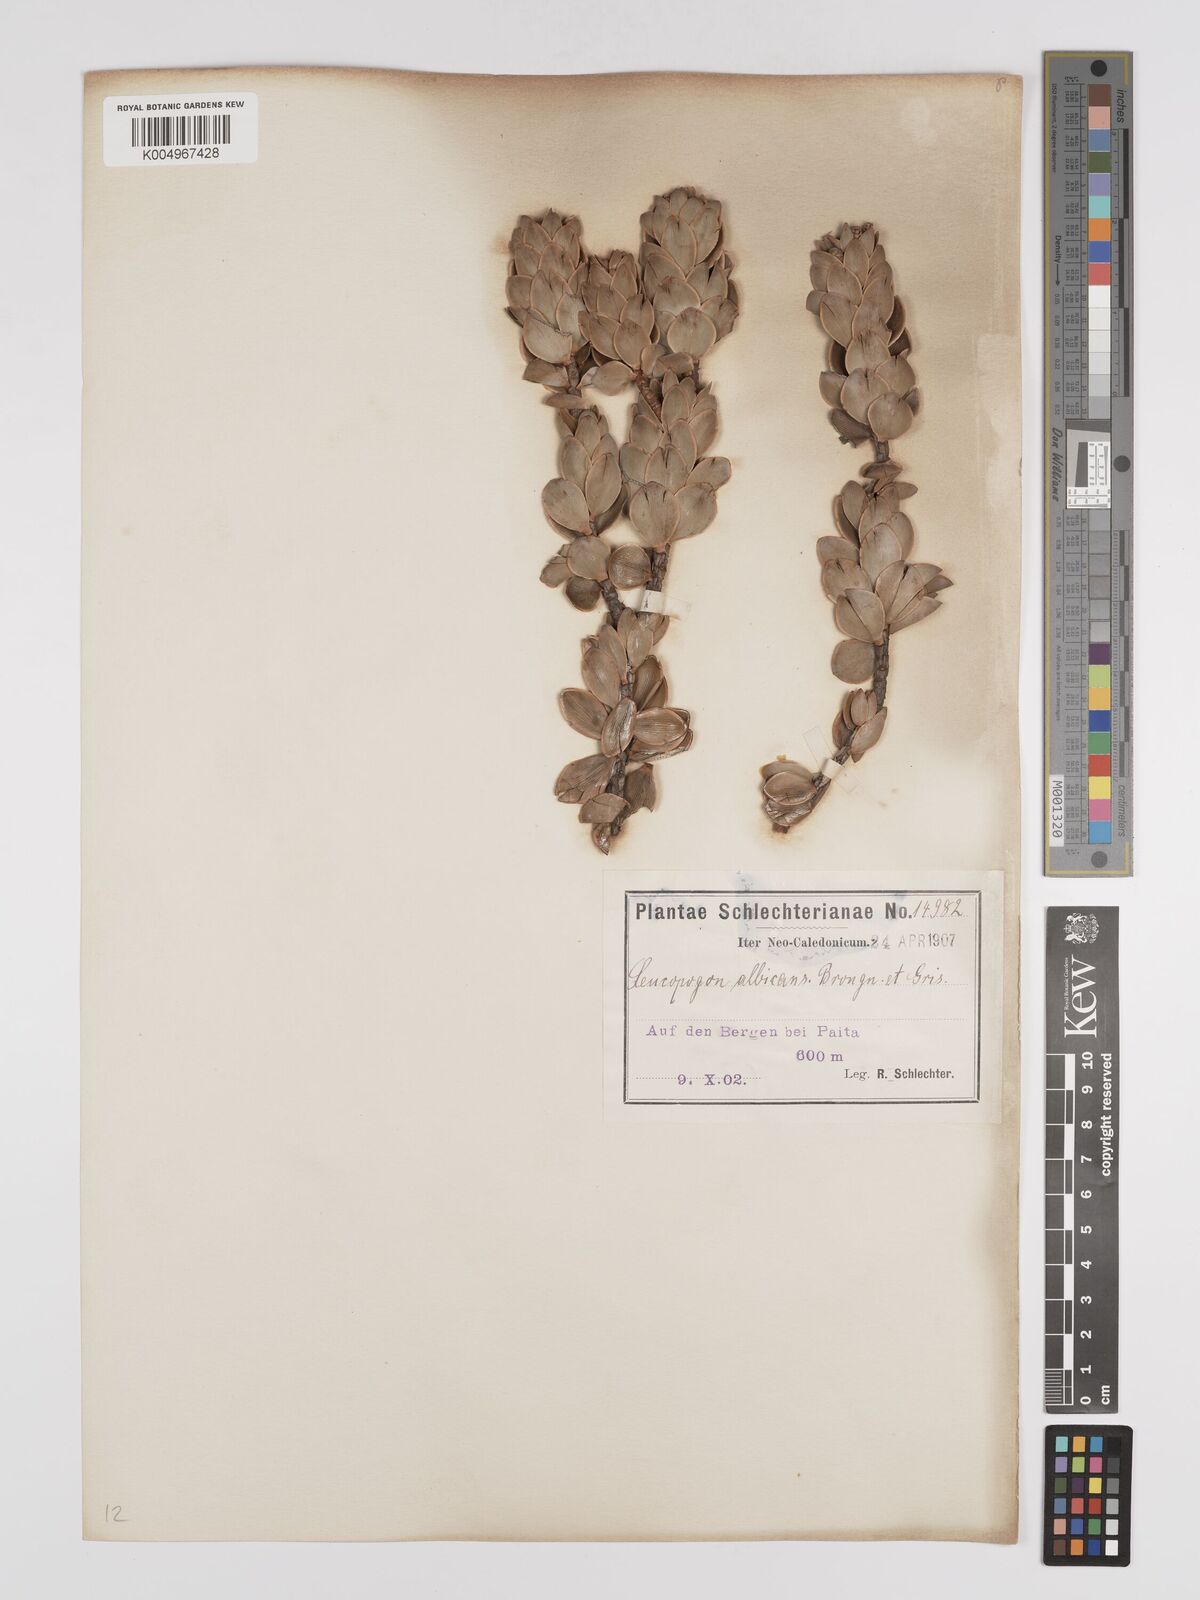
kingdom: Plantae
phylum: Tracheophyta
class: Magnoliopsida
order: Ericales
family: Ericaceae
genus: Cyathopsis
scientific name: Cyathopsis albicans
